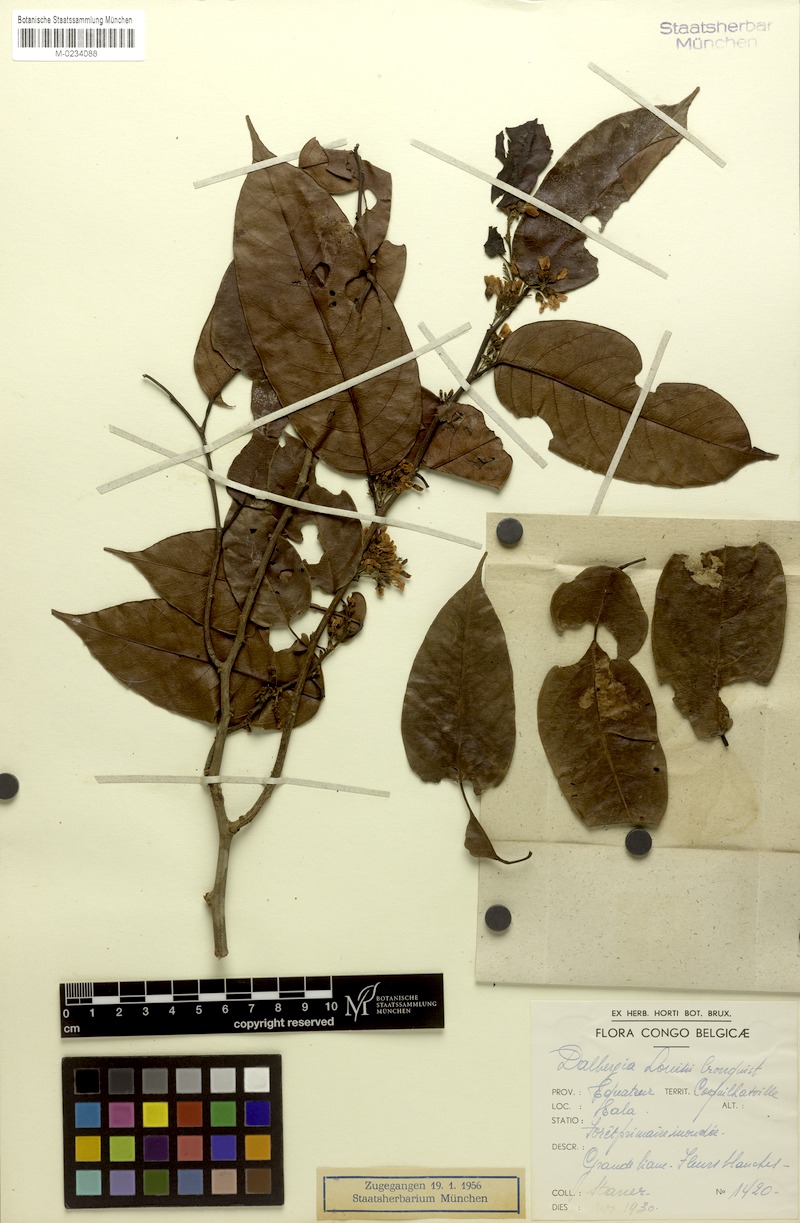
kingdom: Plantae
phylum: Tracheophyta
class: Magnoliopsida
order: Fabales
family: Fabaceae
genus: Dalbergia
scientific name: Dalbergia louisii
